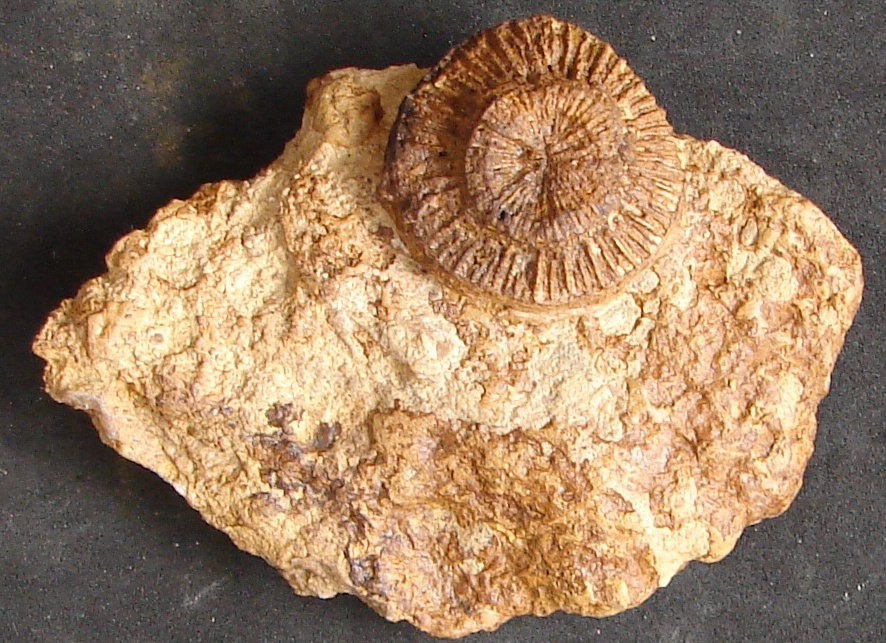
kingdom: Animalia
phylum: Cnidaria
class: Anthozoa
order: Scleractinia
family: Thecosmiliidae
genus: Montlivaltia
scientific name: Montlivaltia
